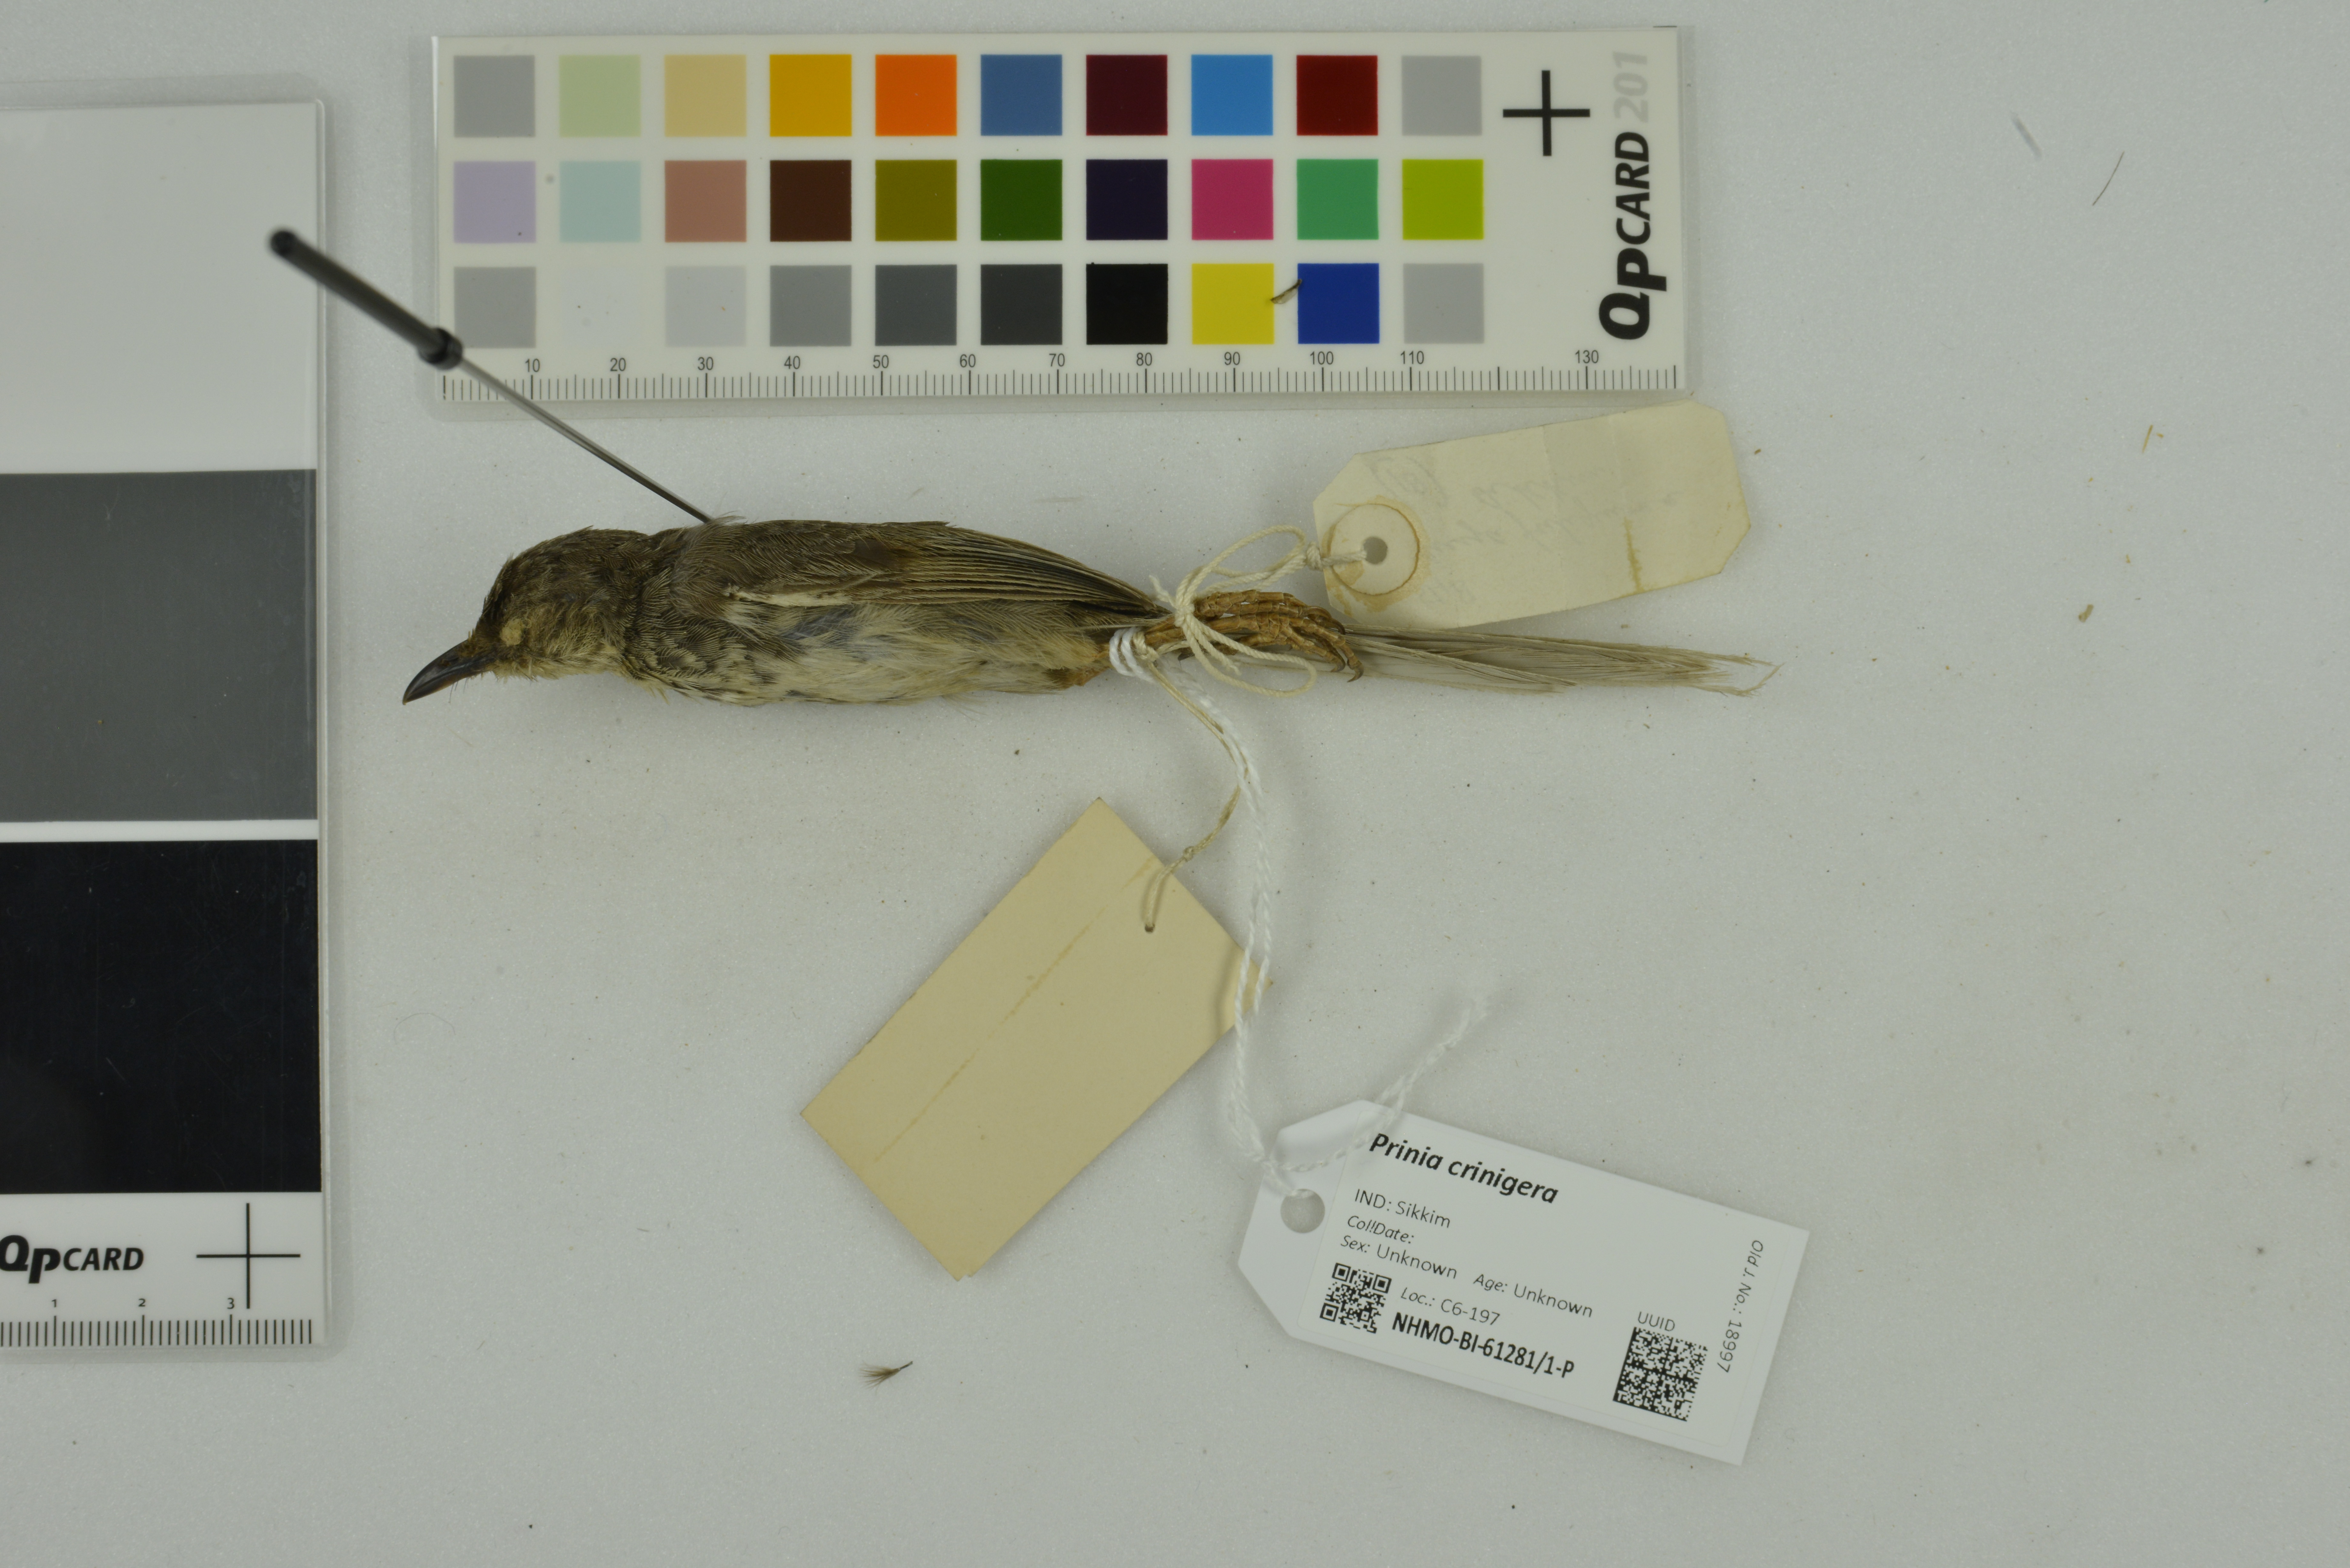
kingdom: Animalia
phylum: Chordata
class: Aves
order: Passeriformes
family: Cisticolidae
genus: Prinia
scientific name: Prinia crinigera
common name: Striated prinia
